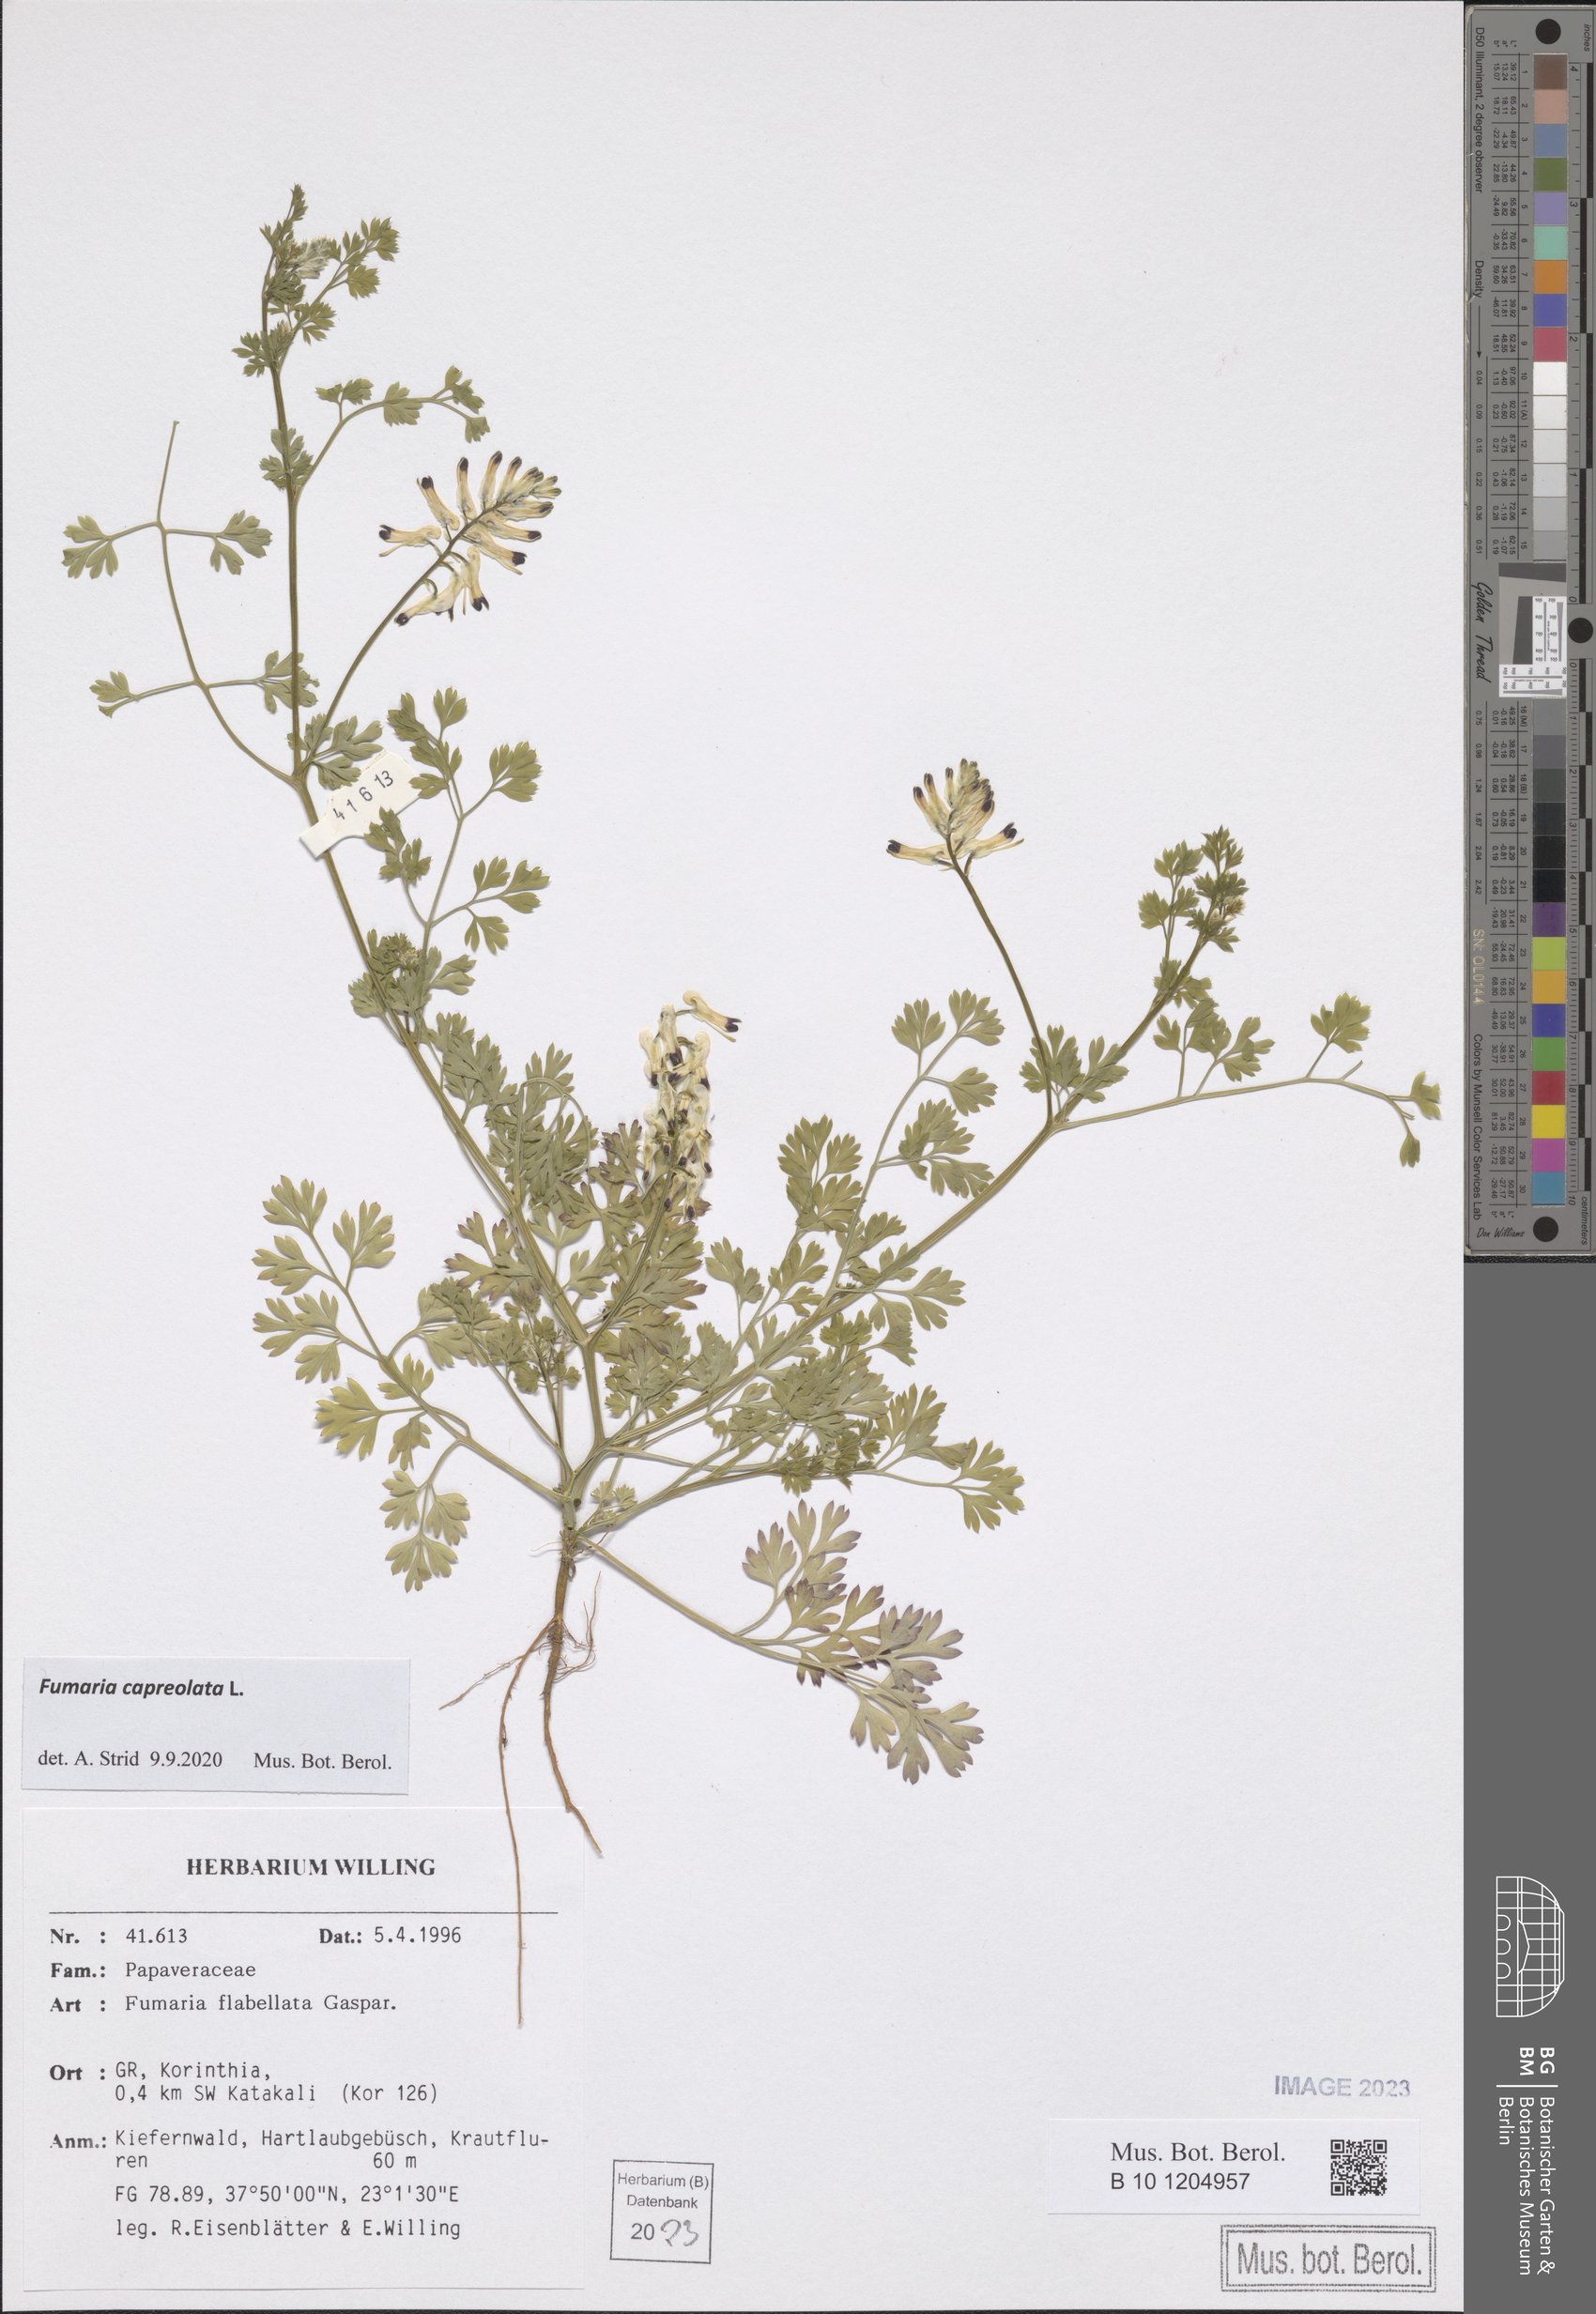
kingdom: Plantae
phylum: Tracheophyta
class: Magnoliopsida
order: Ranunculales
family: Papaveraceae
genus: Fumaria
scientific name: Fumaria capreolata
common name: White ramping-fumitory
